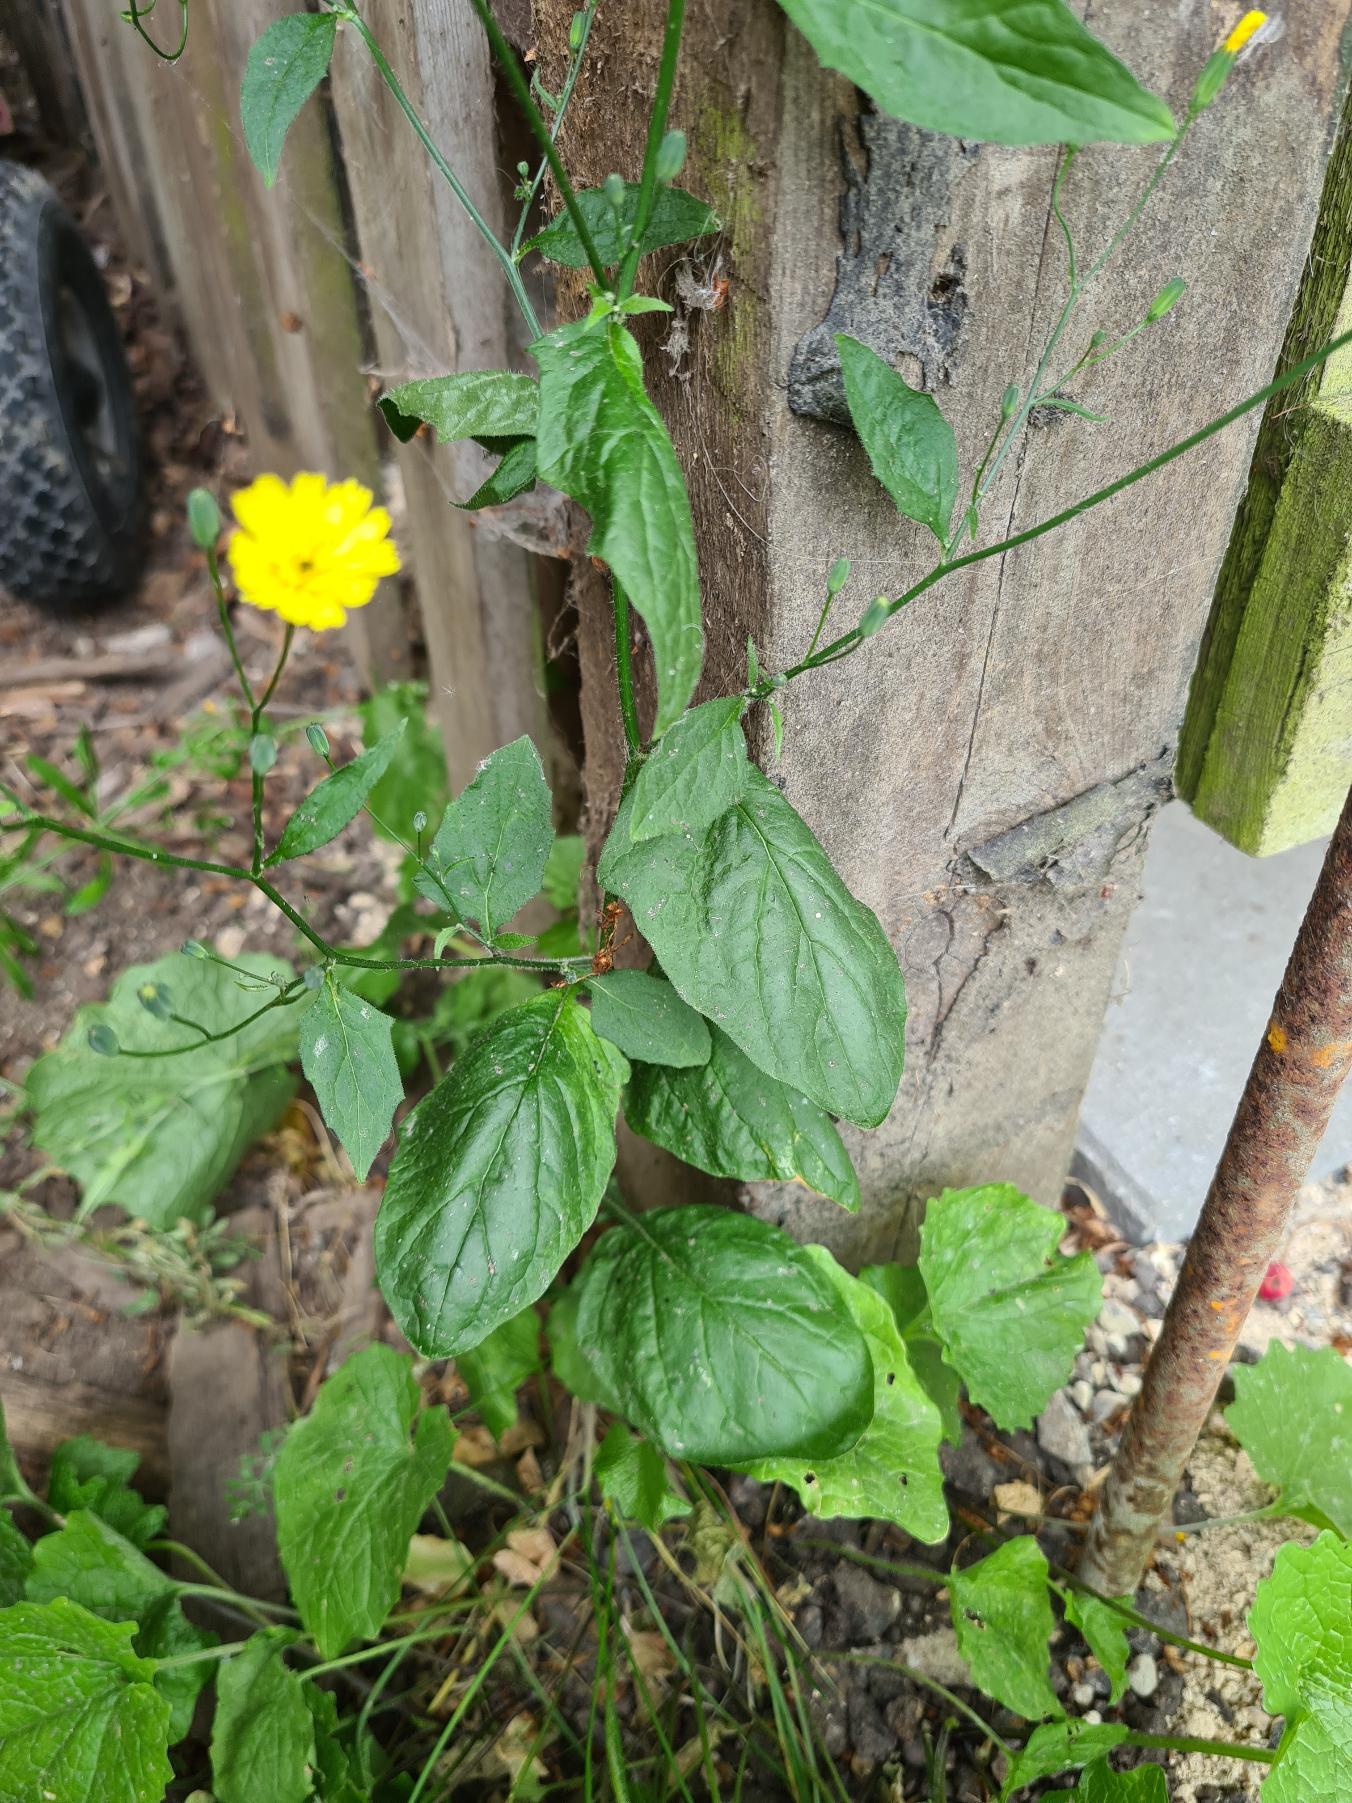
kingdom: Plantae
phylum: Tracheophyta
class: Magnoliopsida
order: Asterales
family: Asteraceae
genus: Lapsana
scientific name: Lapsana communis
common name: Haremad
